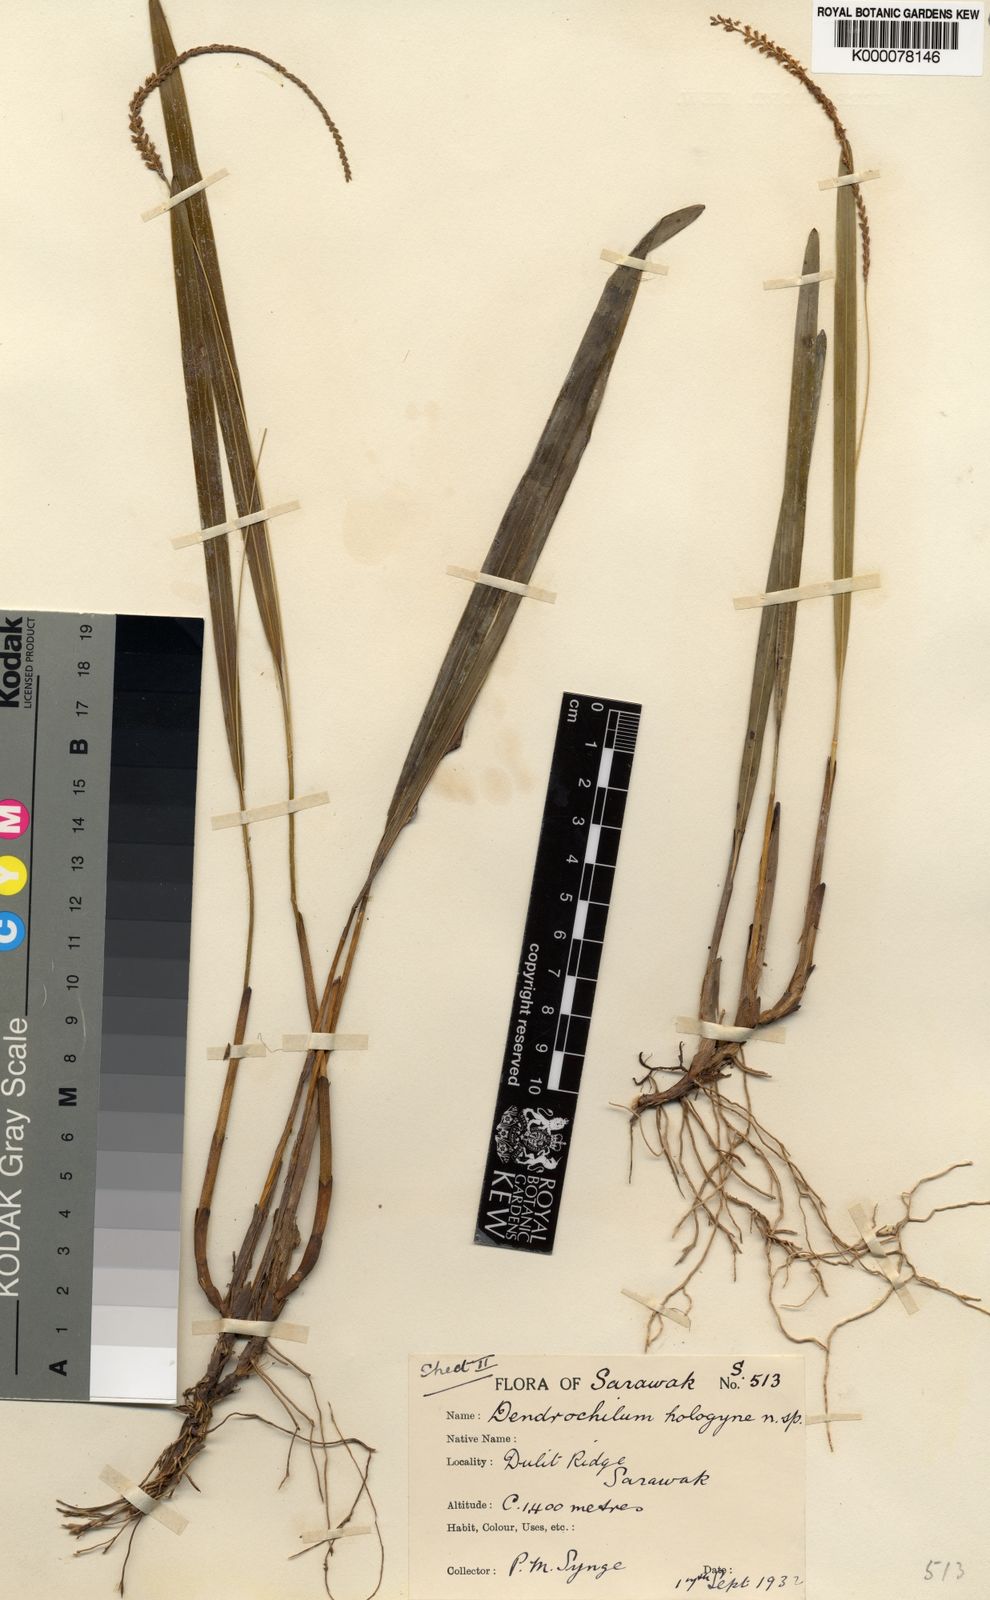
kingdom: Plantae
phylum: Tracheophyta
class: Liliopsida
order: Asparagales
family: Orchidaceae
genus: Coelogyne
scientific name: Coelogyne hologyne
